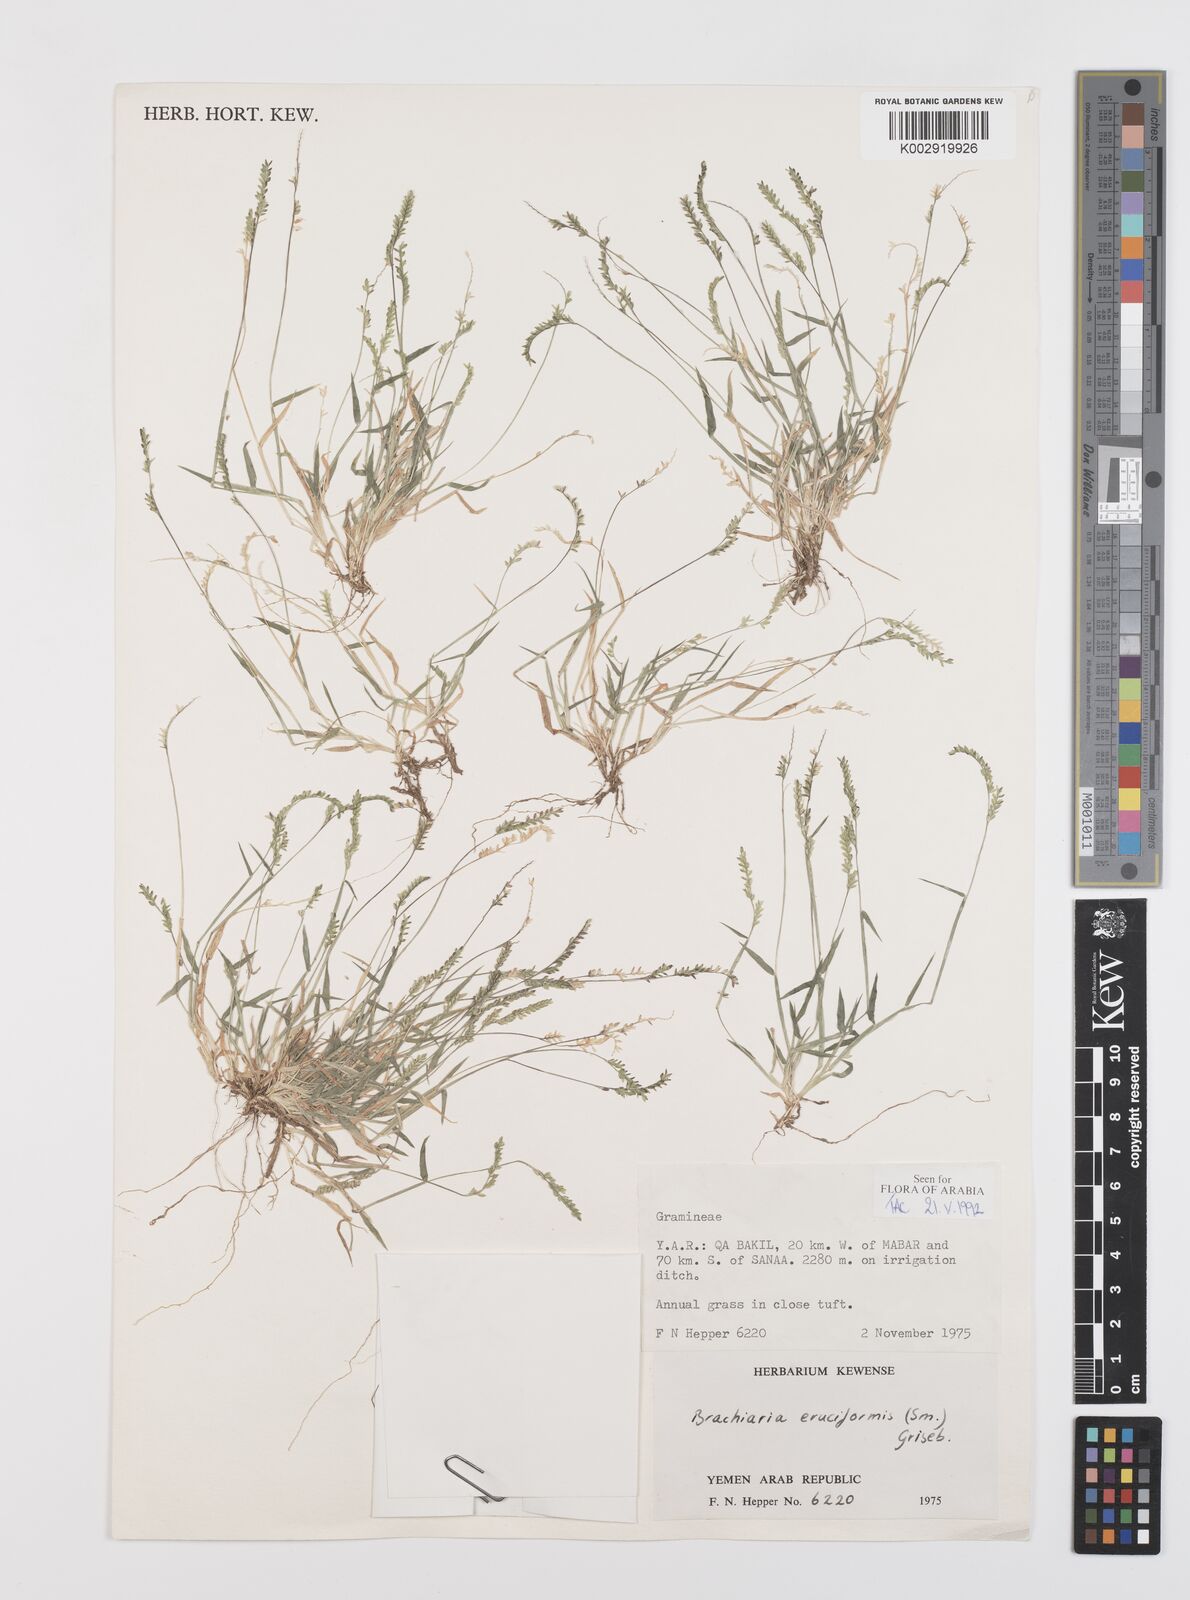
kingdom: Plantae
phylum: Tracheophyta
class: Liliopsida
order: Poales
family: Poaceae
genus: Moorochloa
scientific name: Moorochloa eruciformis
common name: Sweet signalgrass
